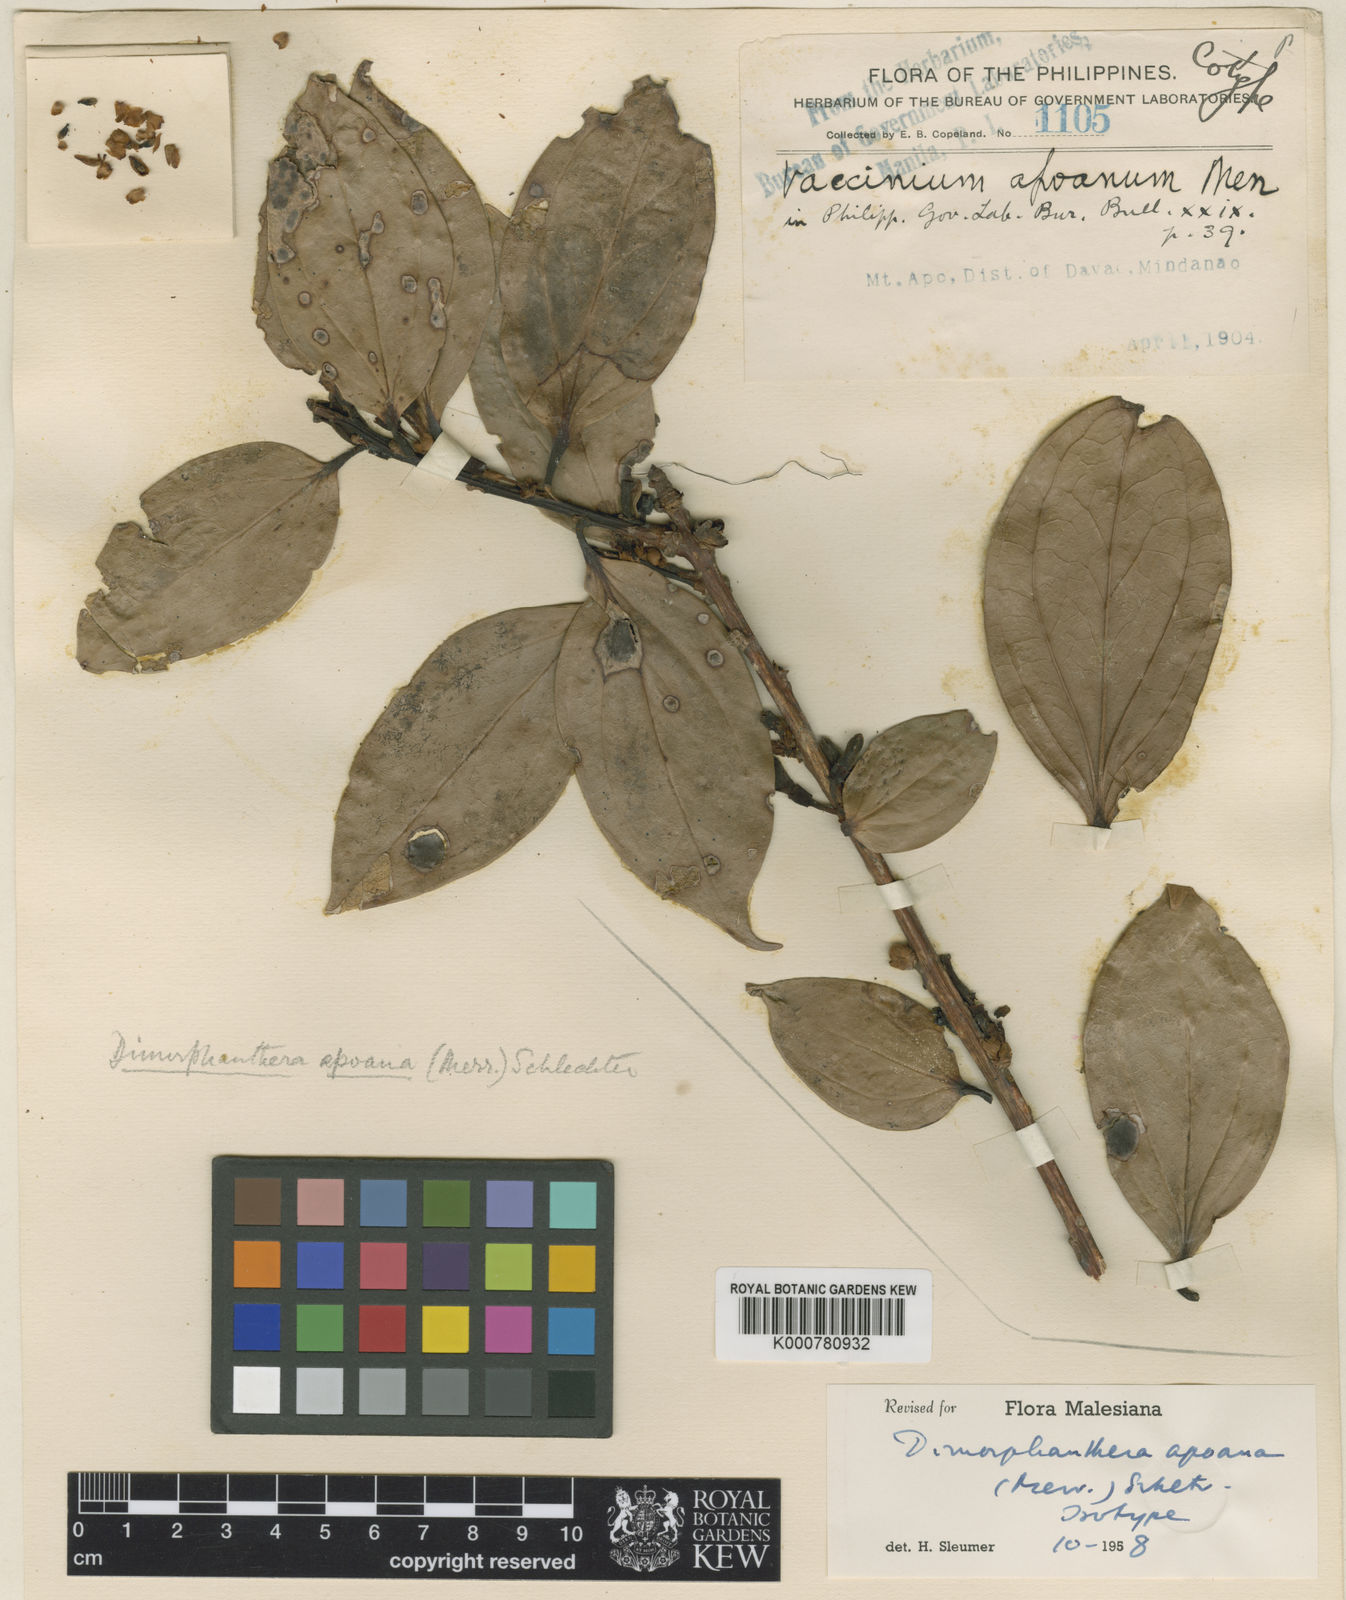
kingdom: Plantae
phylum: Tracheophyta
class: Magnoliopsida
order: Ericales
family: Ericaceae
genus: Dimorphanthera
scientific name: Dimorphanthera apoana
